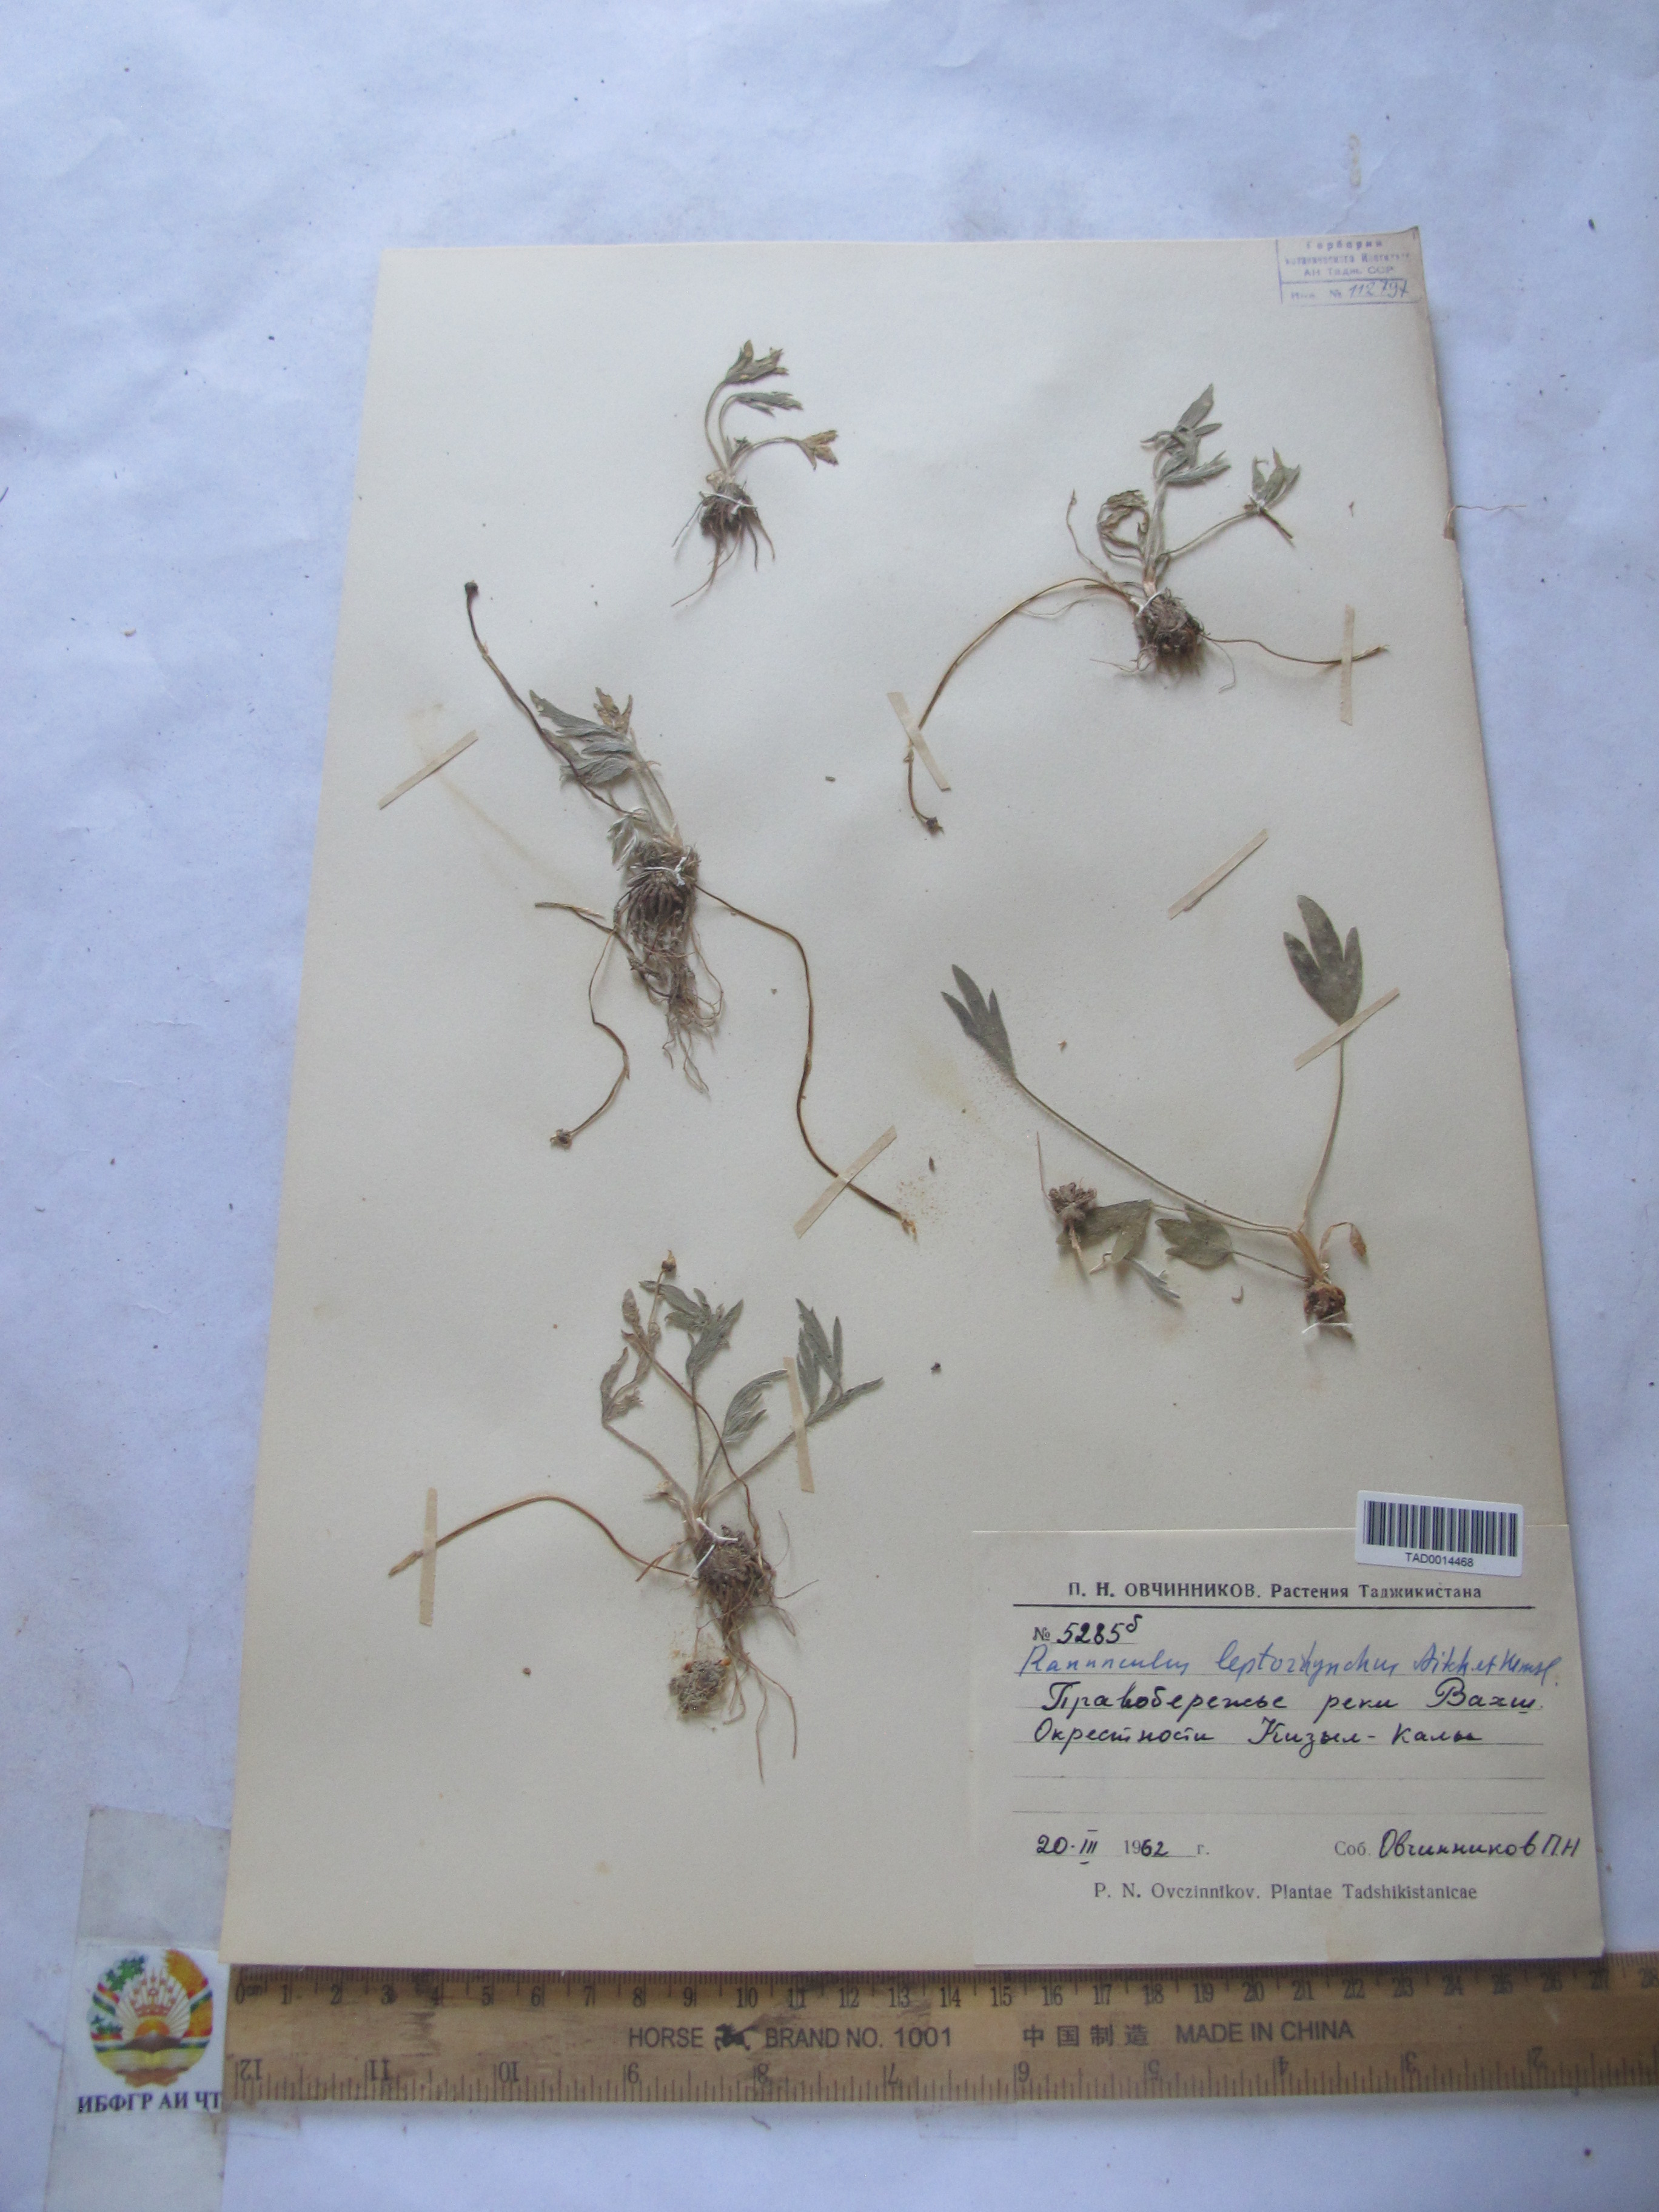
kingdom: Plantae
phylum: Tracheophyta
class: Magnoliopsida
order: Ranunculales
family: Ranunculaceae
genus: Ranunculus
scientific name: Ranunculus leptorrhynchus
